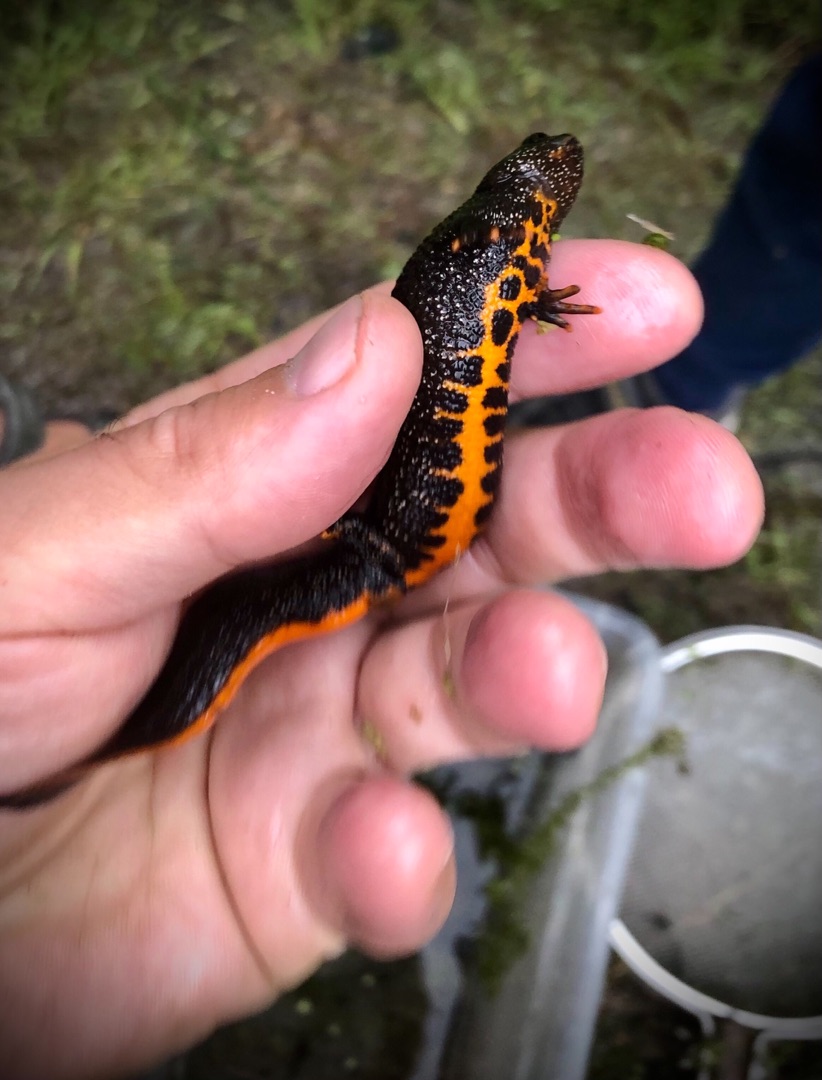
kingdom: Animalia
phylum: Chordata
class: Amphibia
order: Caudata
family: Salamandridae
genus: Triturus
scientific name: Triturus cristatus
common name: Stor vandsalamander
